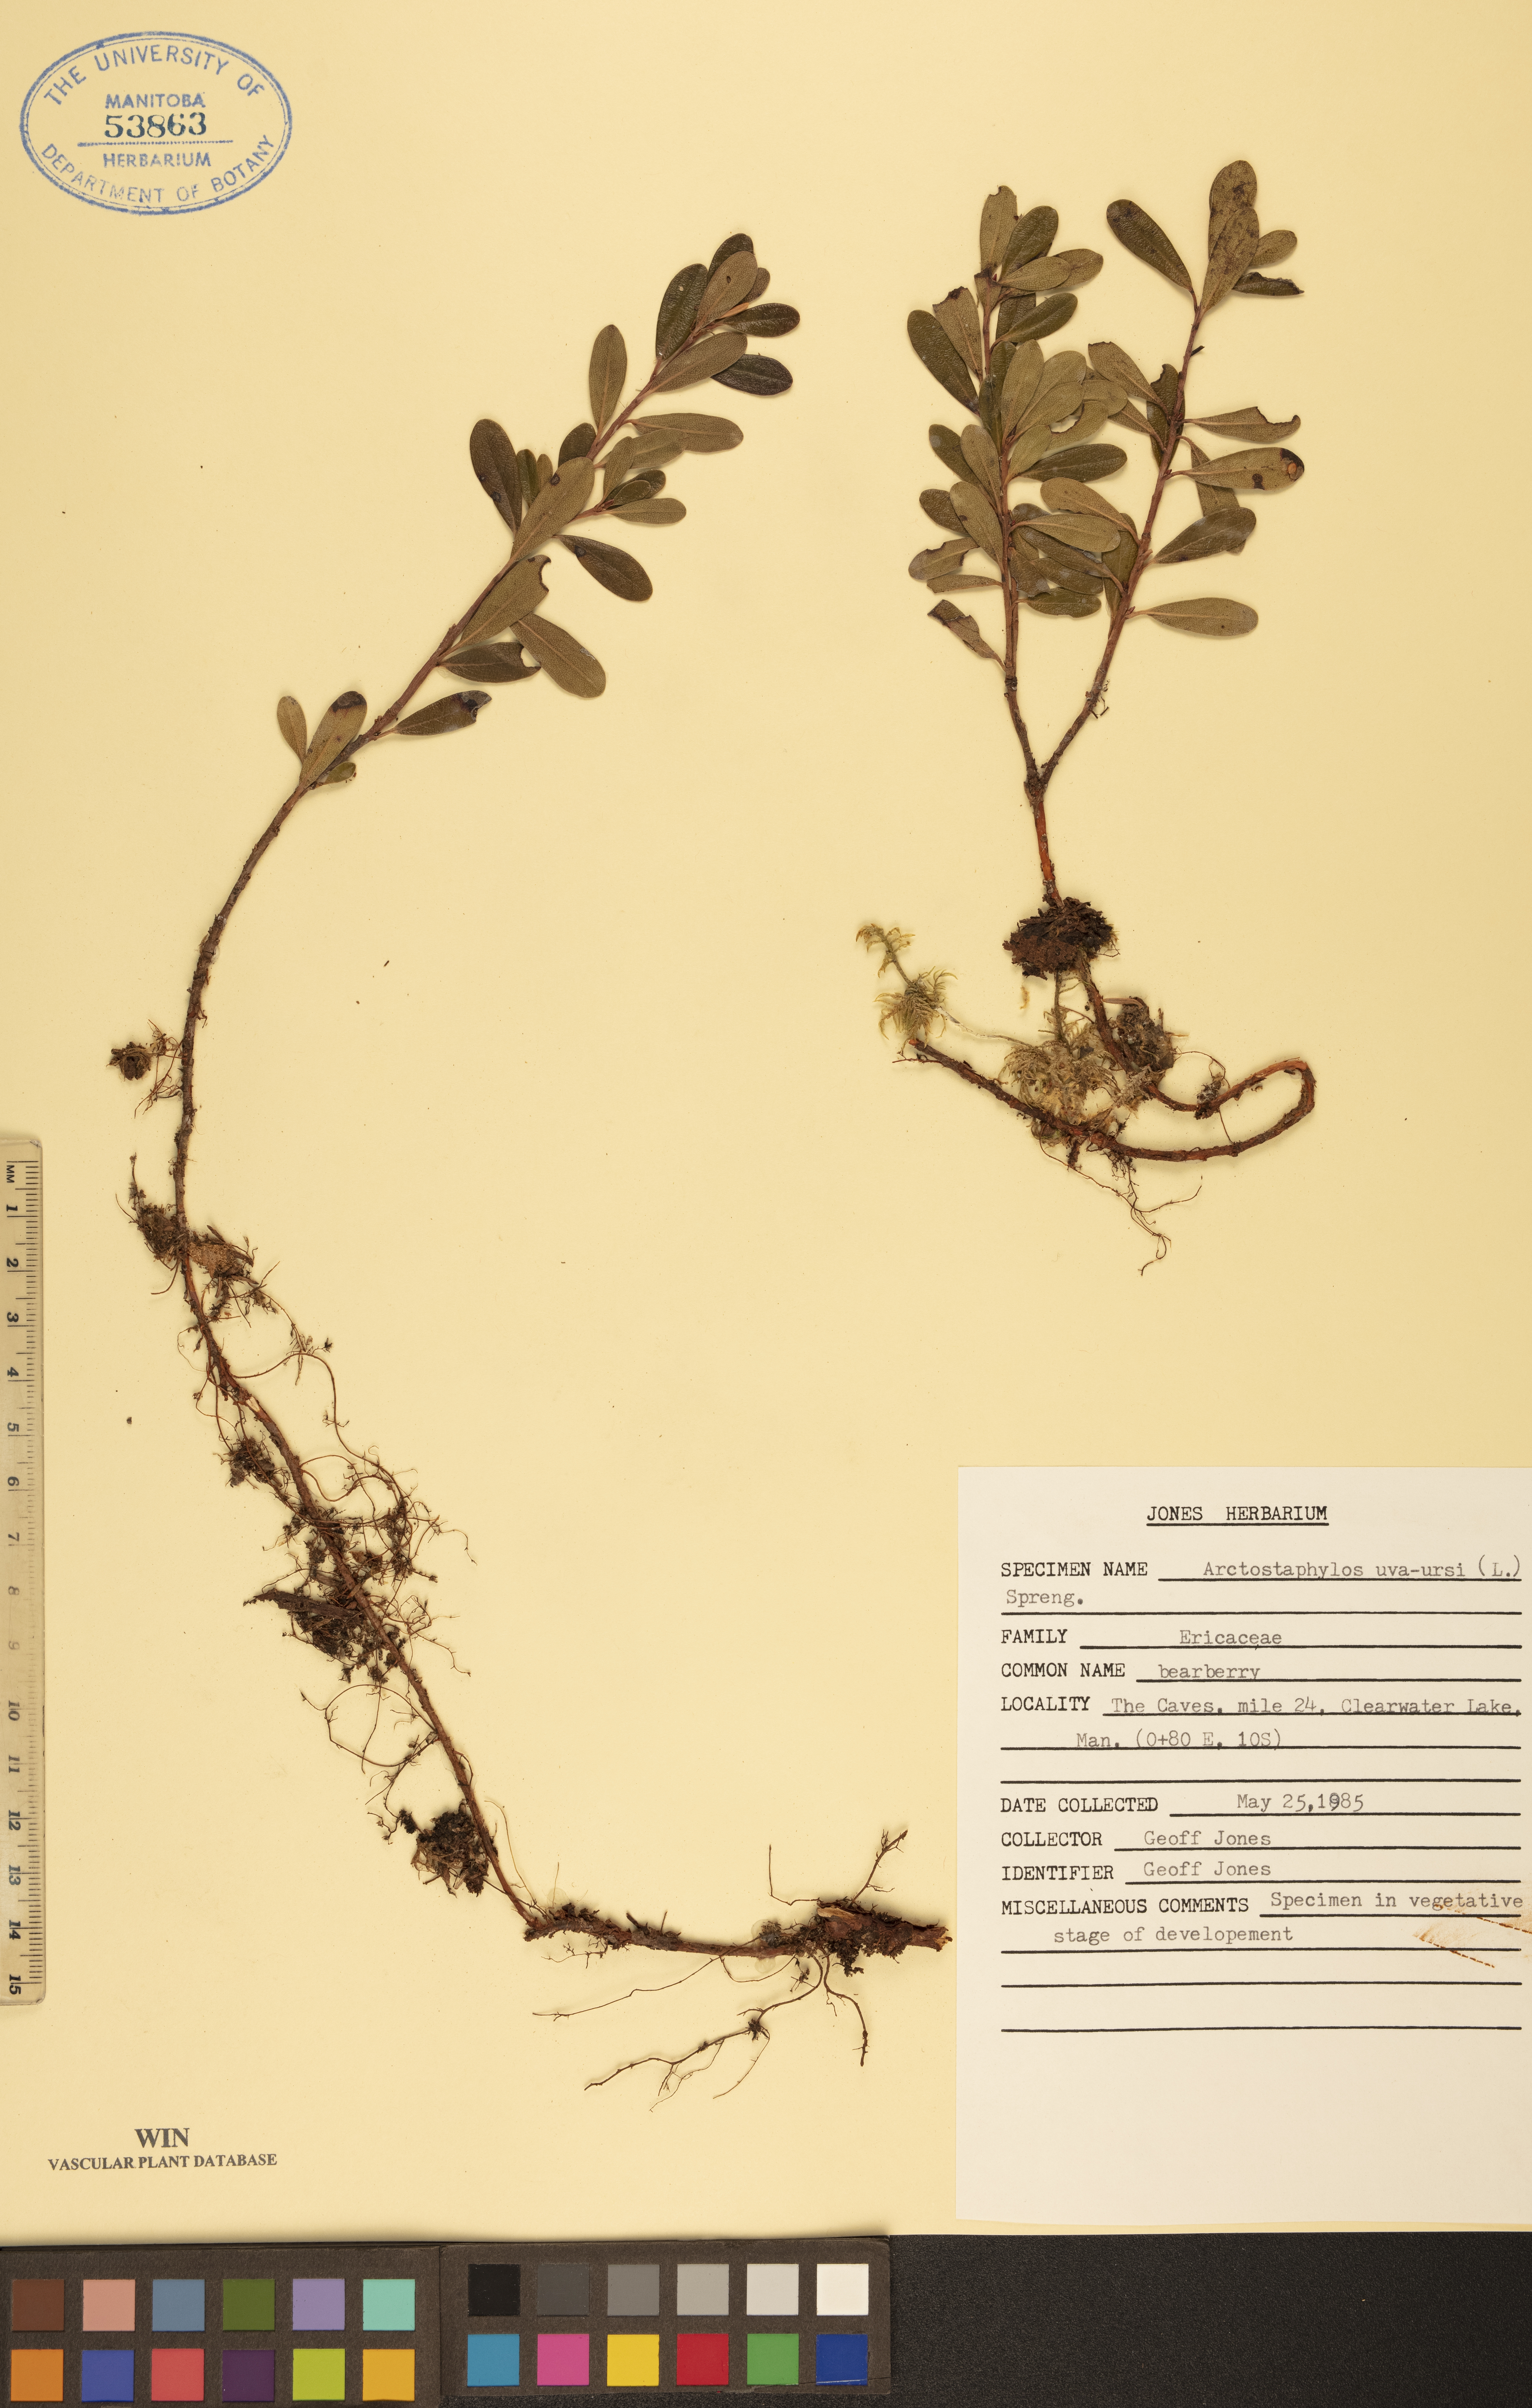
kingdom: Plantae
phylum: Tracheophyta
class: Magnoliopsida
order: Ericales
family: Ericaceae
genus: Arctostaphylos
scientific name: Arctostaphylos uva-ursi
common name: Bearberry
